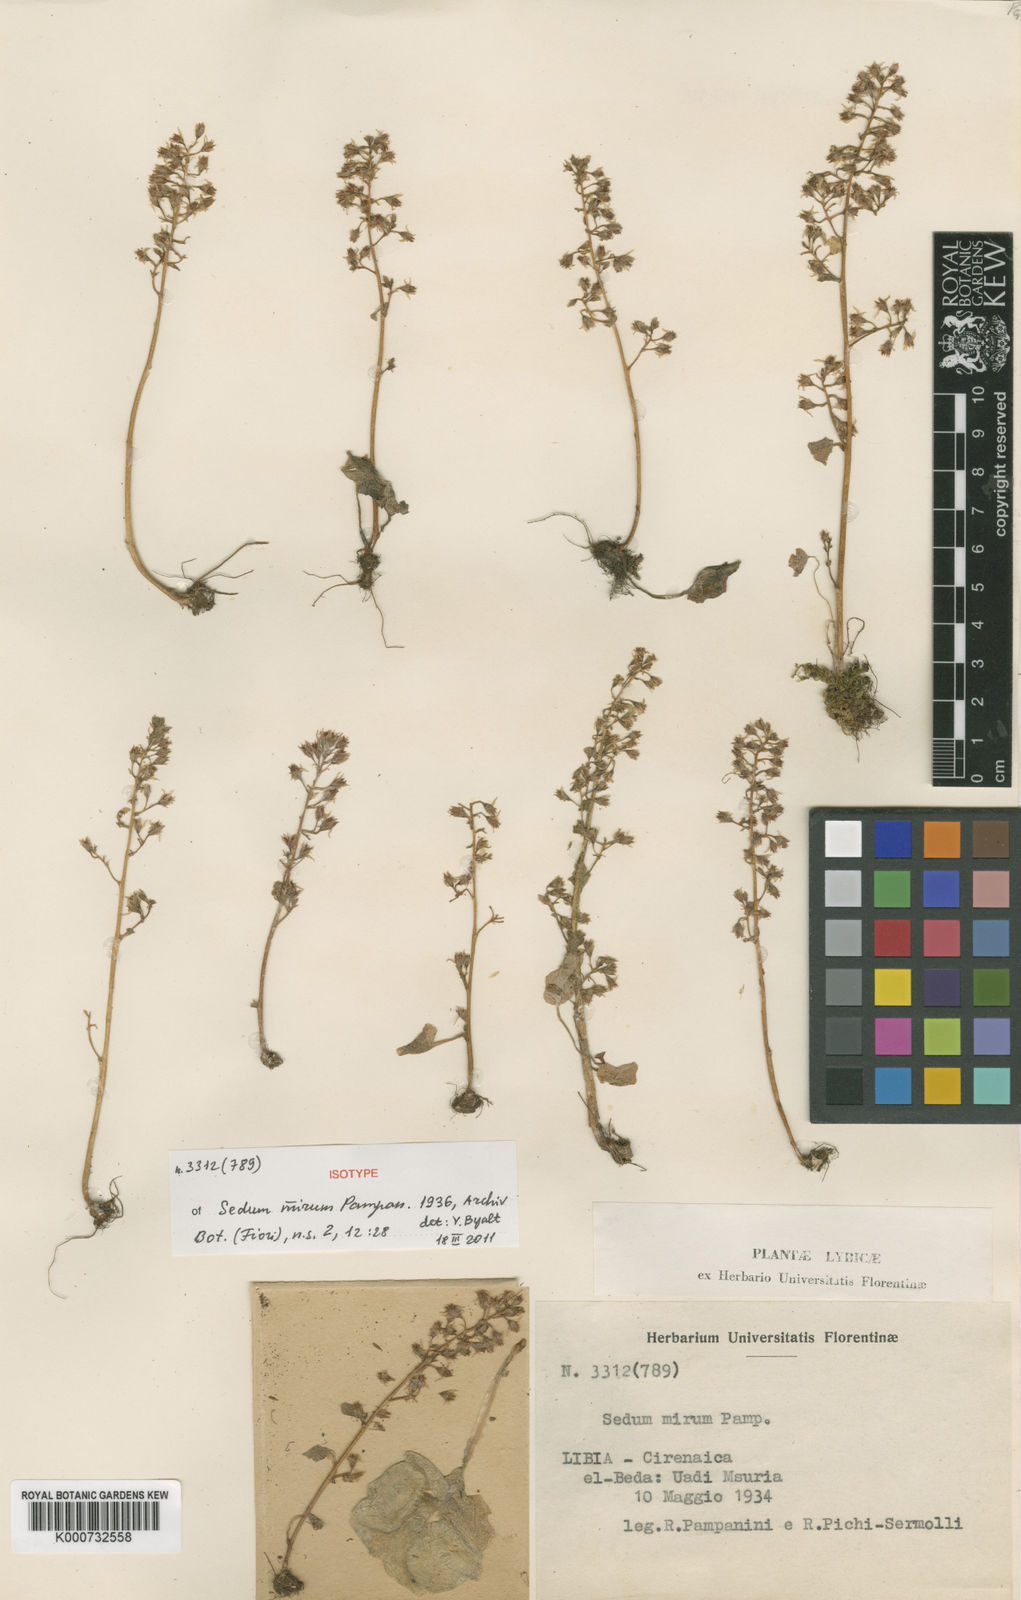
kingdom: Plantae
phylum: Tracheophyta
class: Magnoliopsida
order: Saxifragales
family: Crassulaceae
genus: Umbilicus
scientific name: Umbilicus mirus
